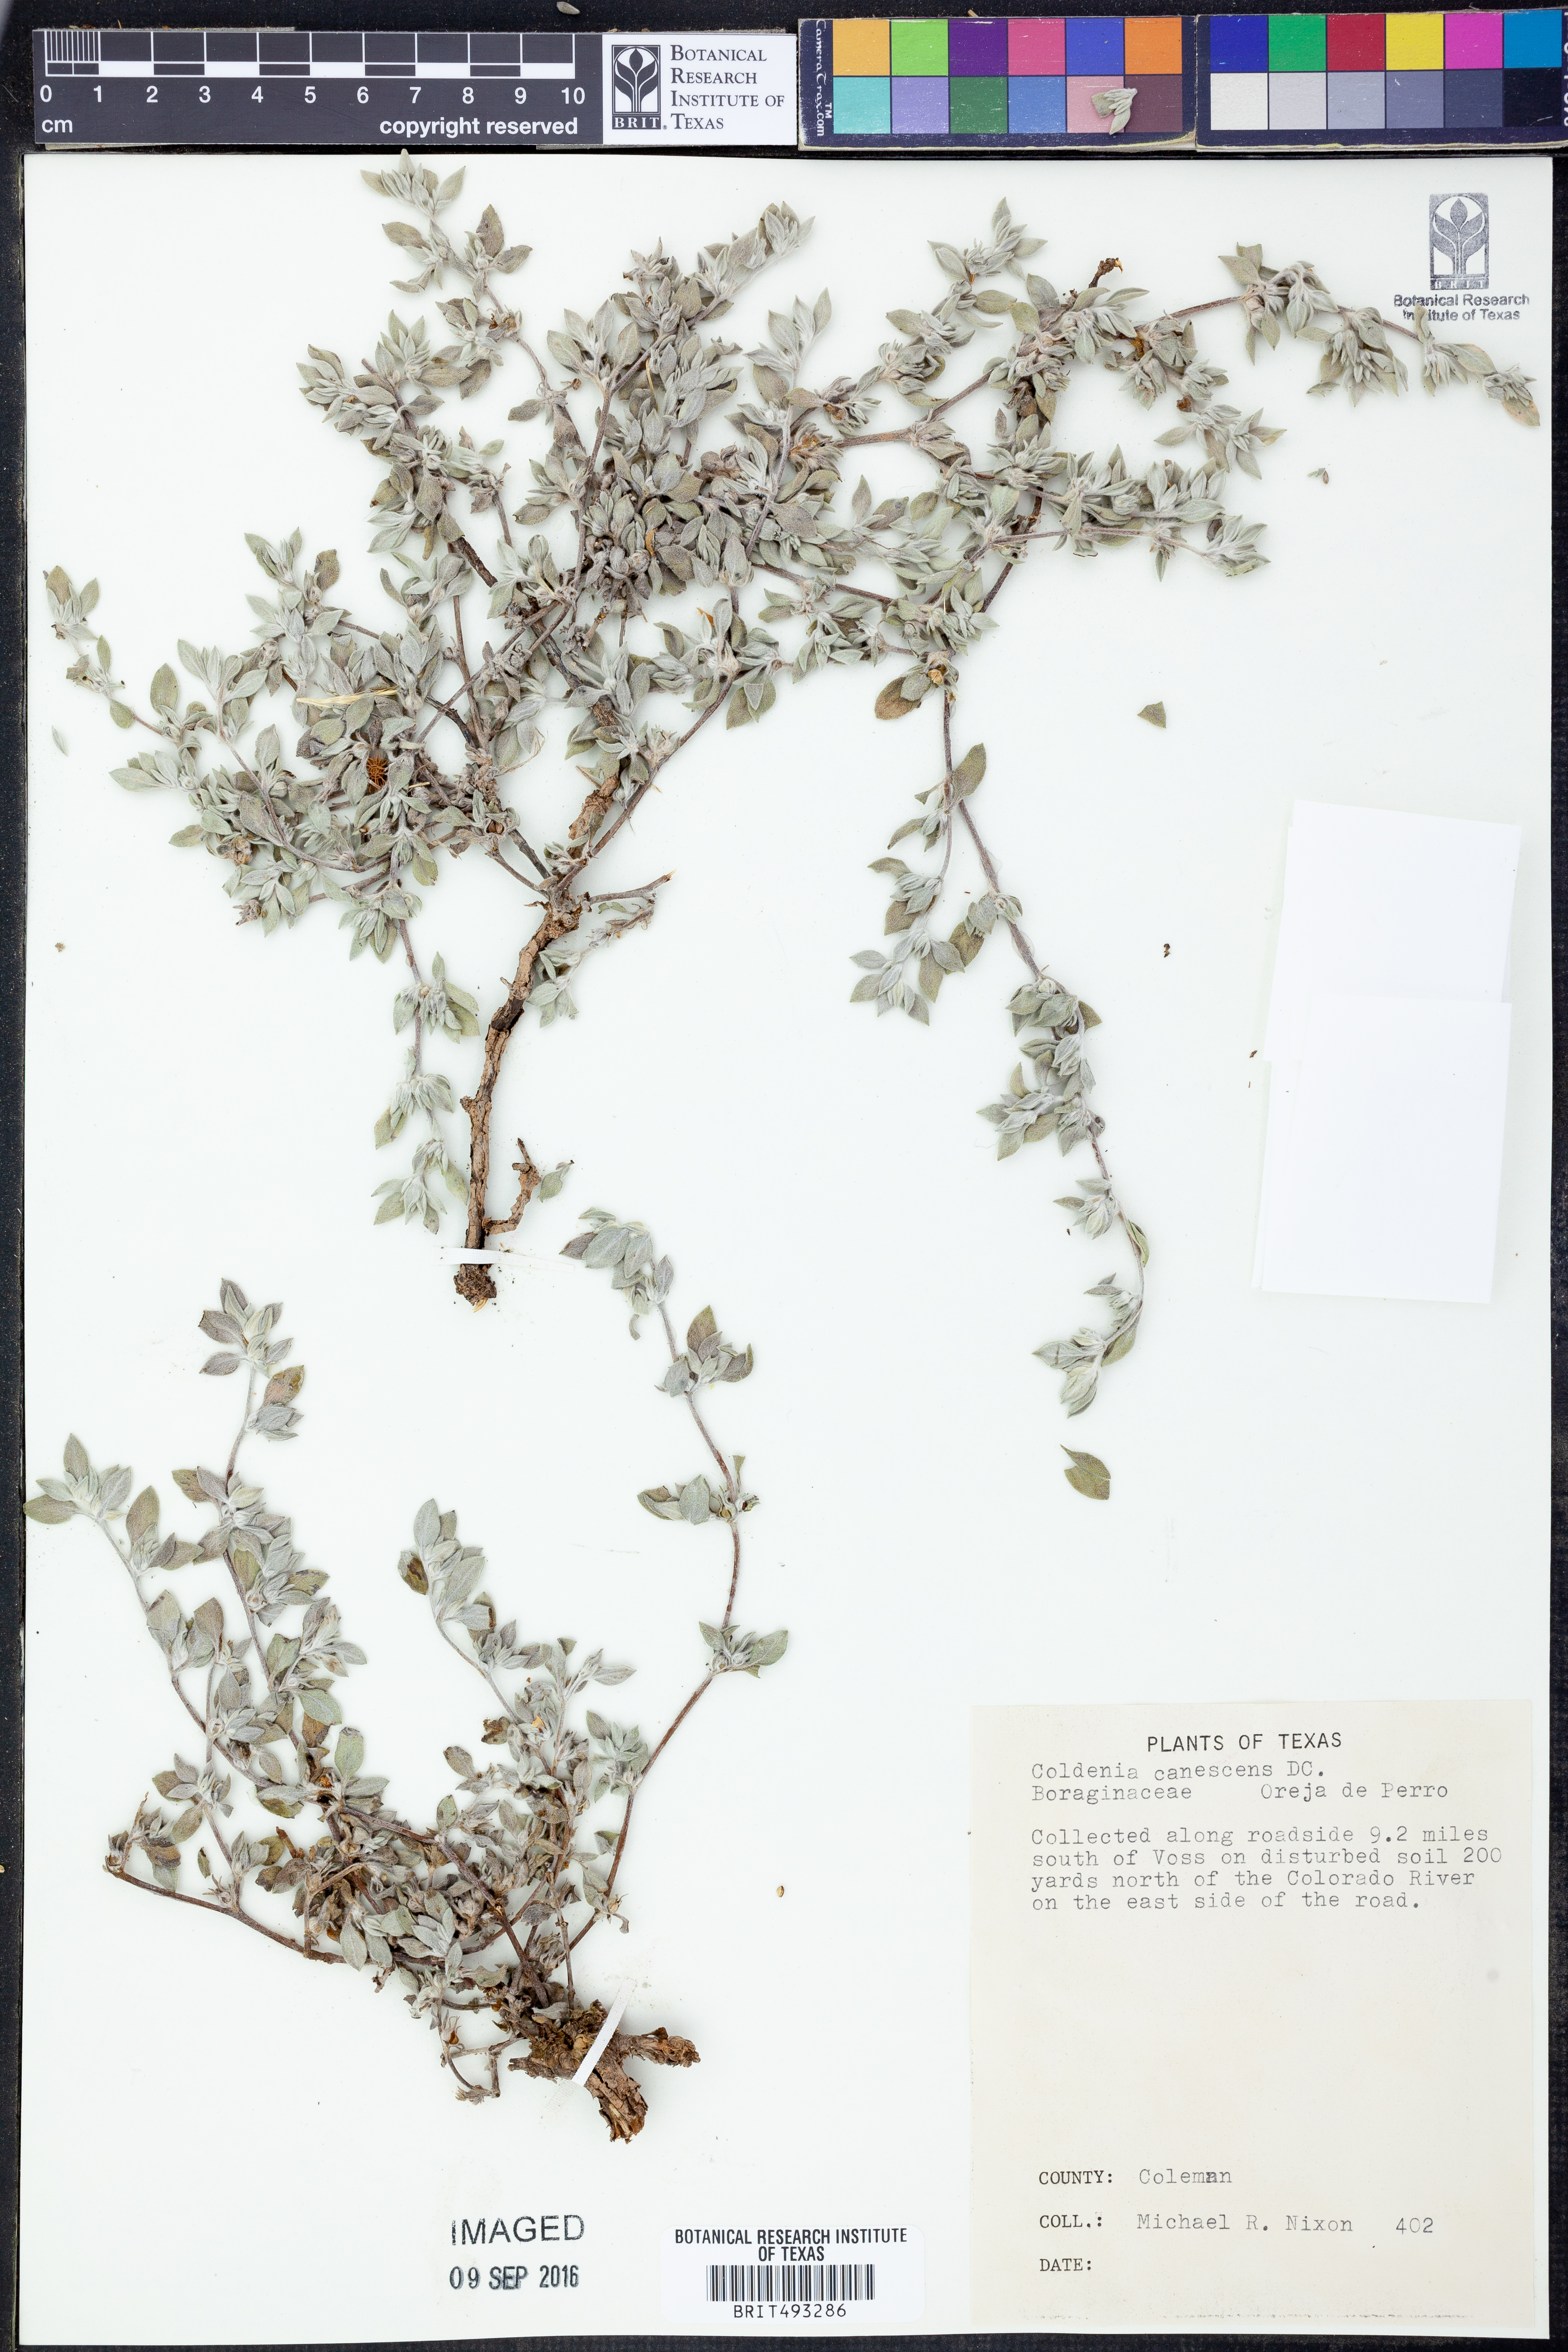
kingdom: Plantae
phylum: Tracheophyta
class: Magnoliopsida
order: Boraginales
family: Ehretiaceae
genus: Tiquilia
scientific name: Tiquilia canescens
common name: Hairy tiquilia
